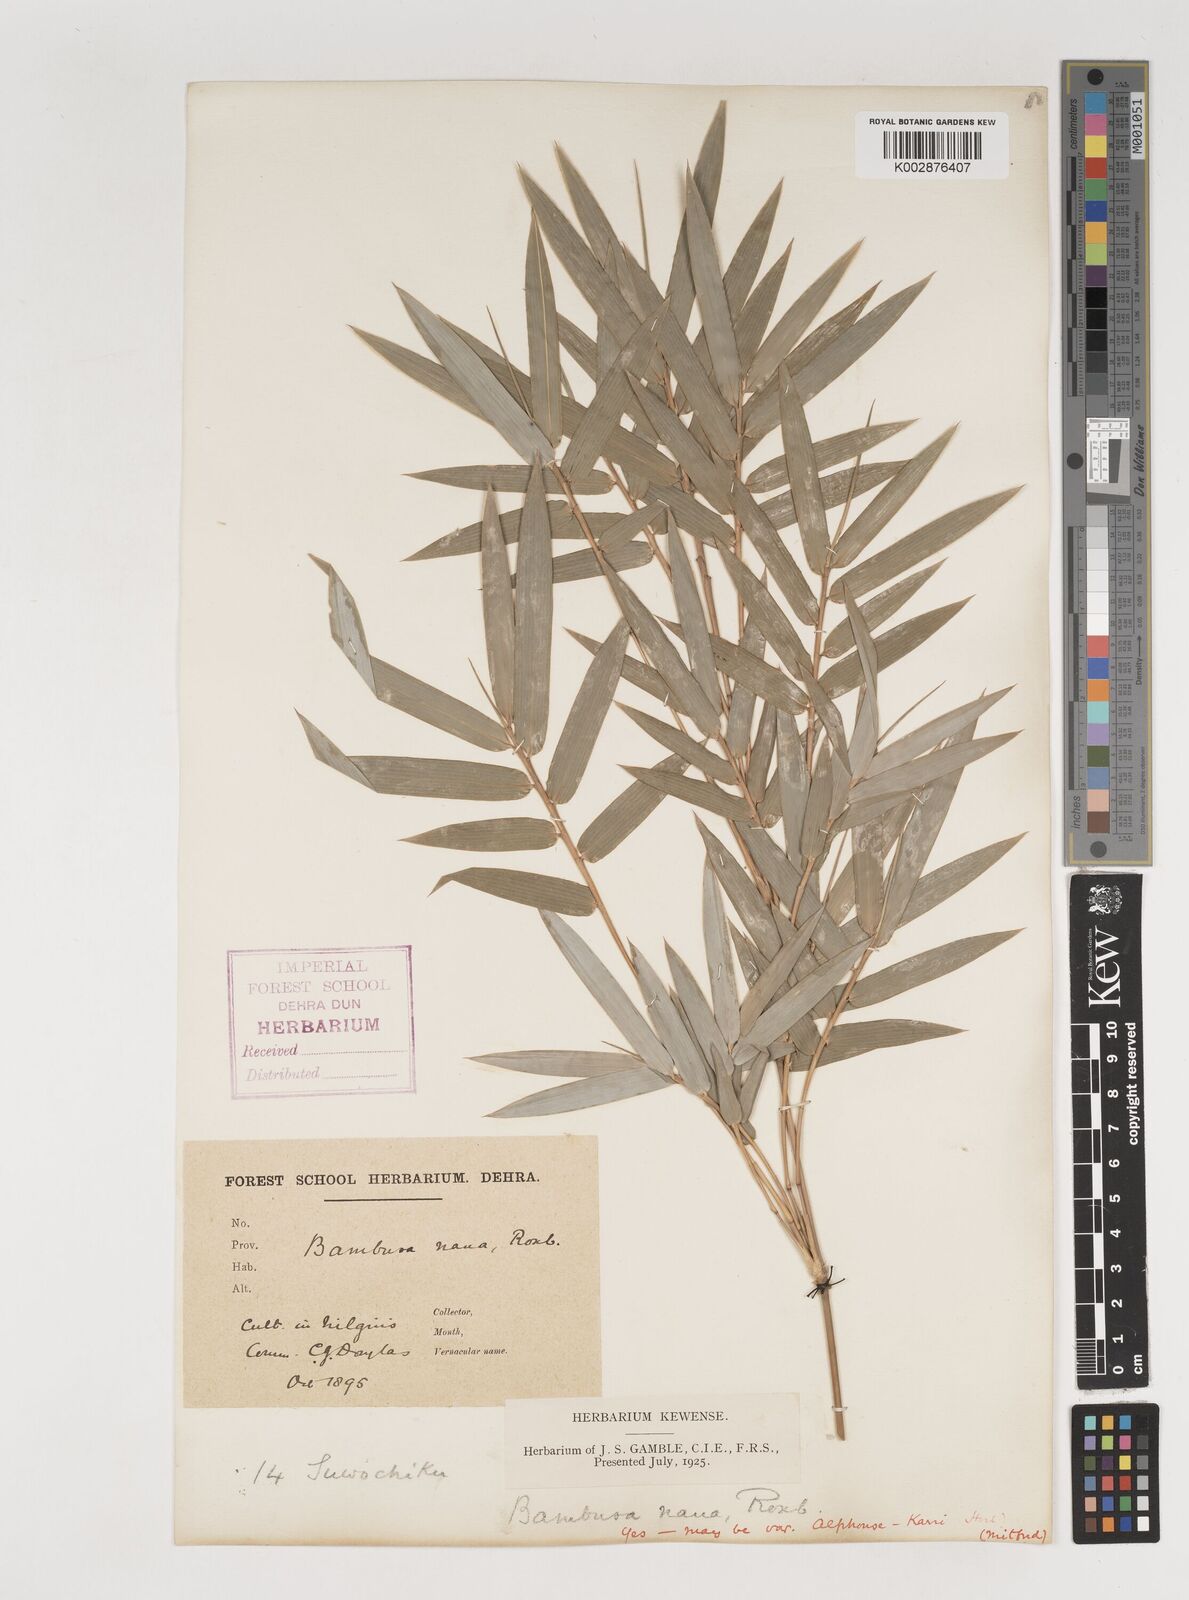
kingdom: Plantae
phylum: Tracheophyta
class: Liliopsida
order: Poales
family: Poaceae
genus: Bambusa
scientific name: Bambusa multiplex
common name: Hedge bamboo
